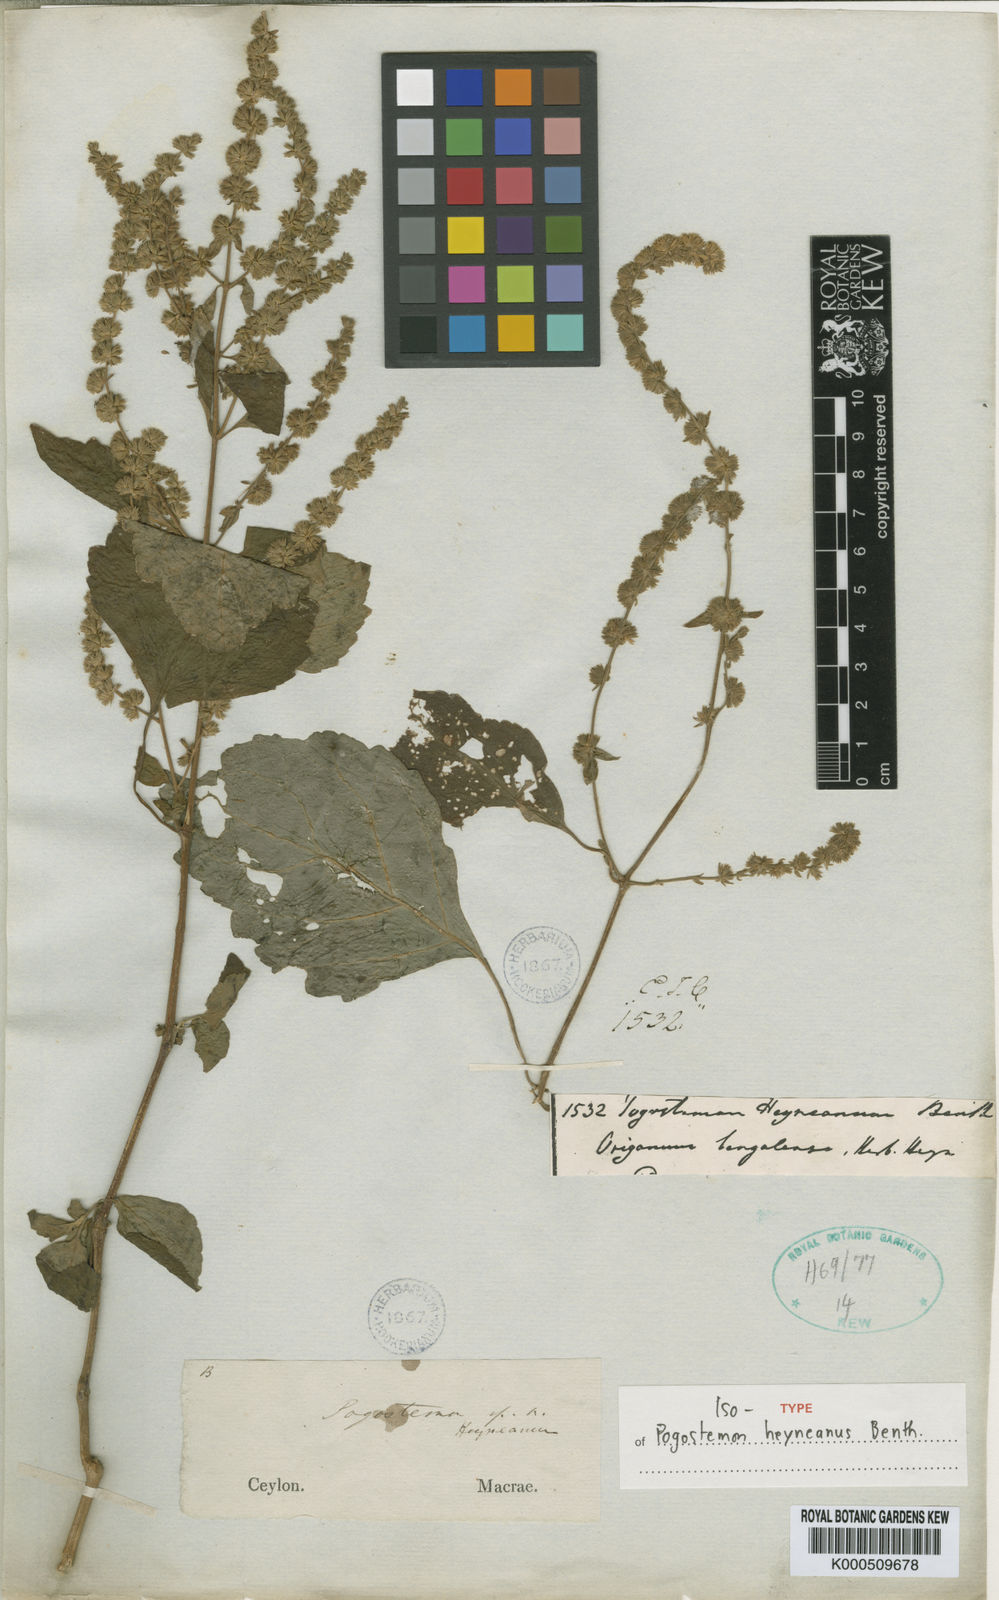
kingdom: Plantae
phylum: Tracheophyta
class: Magnoliopsida
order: Lamiales
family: Lamiaceae
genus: Pogostemon
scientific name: Pogostemon heyneanus
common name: Indian patchouli
